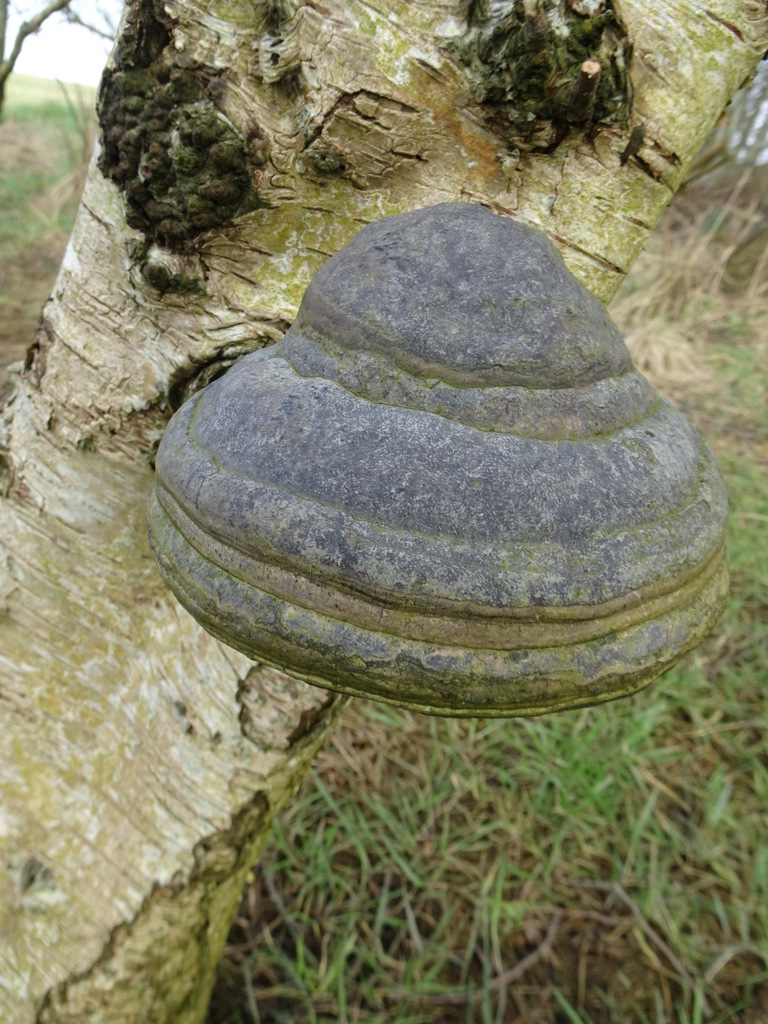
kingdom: Fungi
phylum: Basidiomycota
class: Agaricomycetes
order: Polyporales
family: Polyporaceae
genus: Fomes
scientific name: Fomes fomentarius
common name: tøndersvamp
